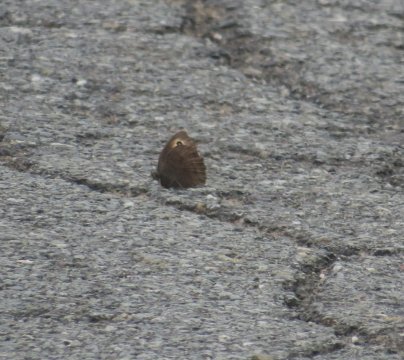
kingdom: Animalia
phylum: Arthropoda
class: Insecta
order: Lepidoptera
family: Nymphalidae
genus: Cercyonis
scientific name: Cercyonis pegala
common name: Common Wood-Nymph
